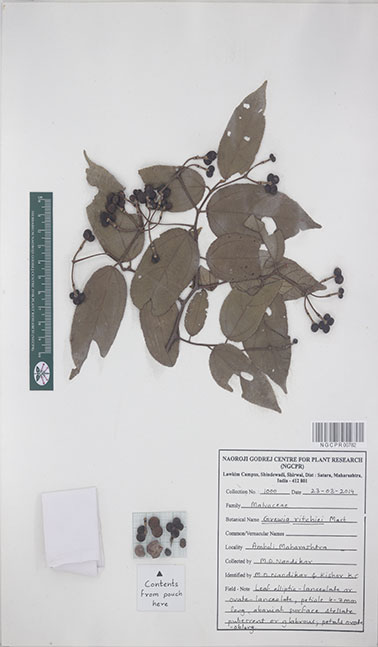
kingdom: Plantae
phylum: Tracheophyta
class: Magnoliopsida
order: Malvales
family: Malvaceae
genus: Grewia
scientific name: Grewia ritchiei
